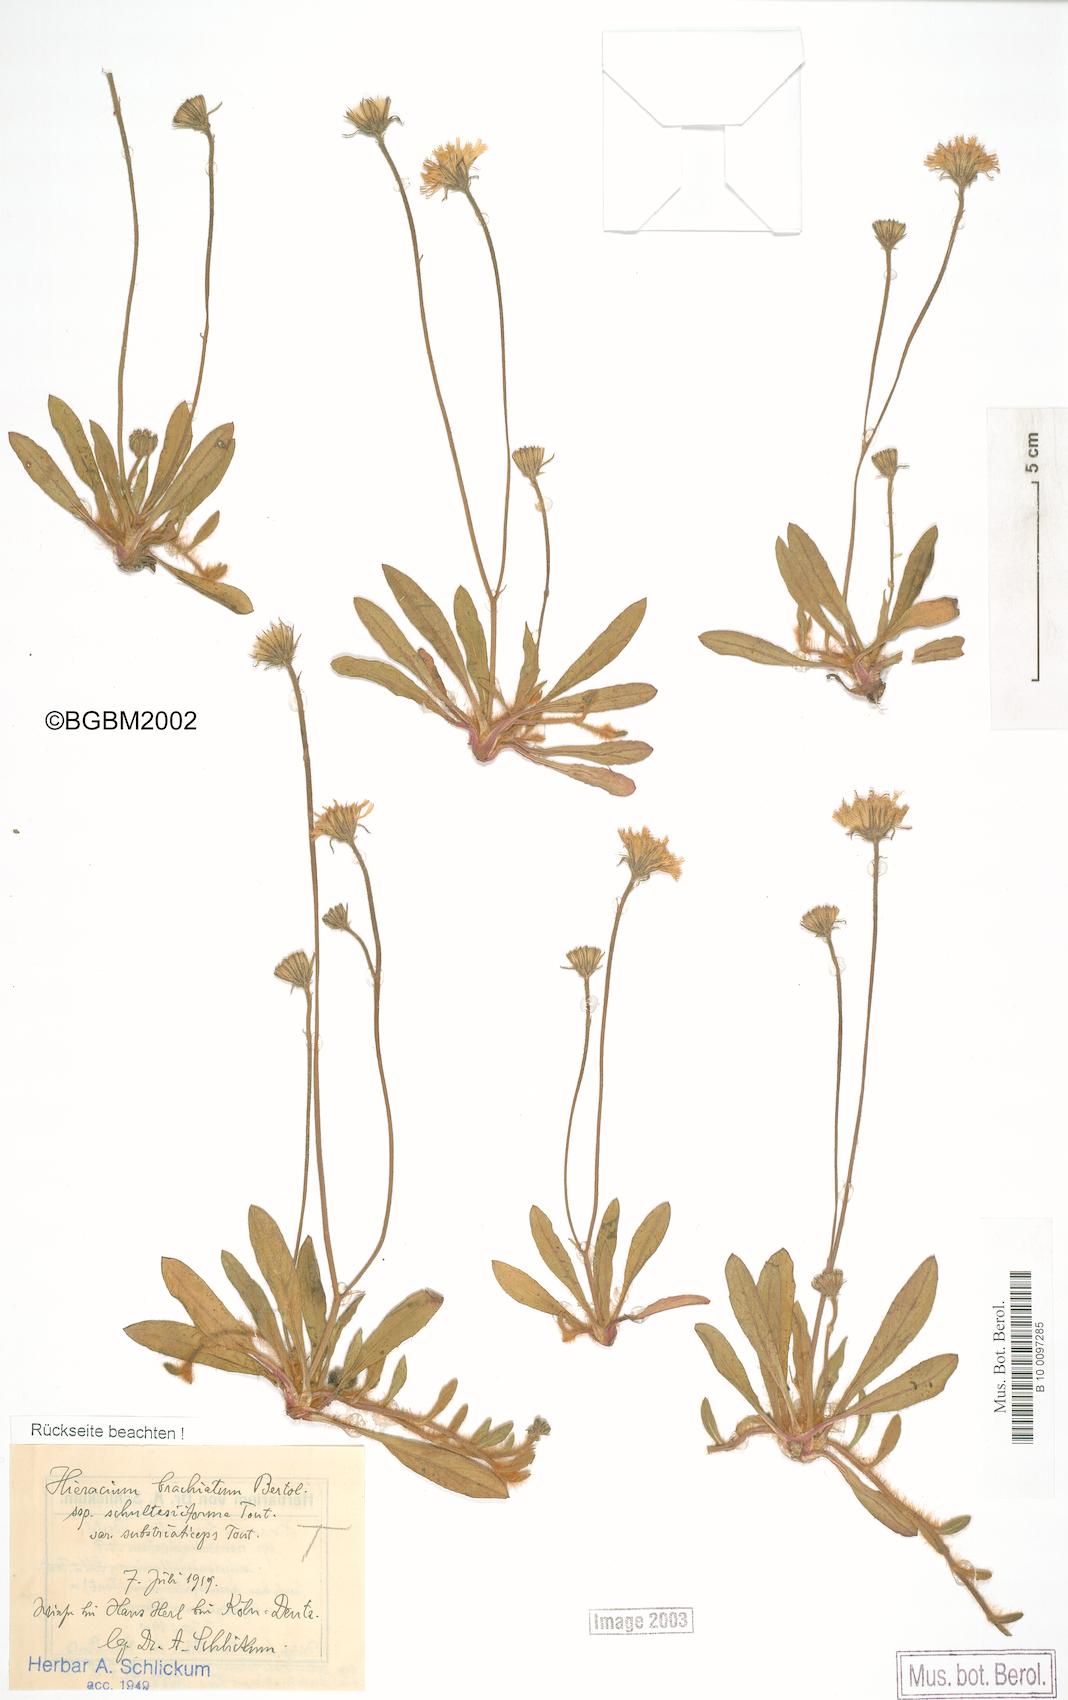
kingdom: Plantae
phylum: Tracheophyta
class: Magnoliopsida
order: Asterales
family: Asteraceae
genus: Pilosella
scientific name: Pilosella acutifolia
